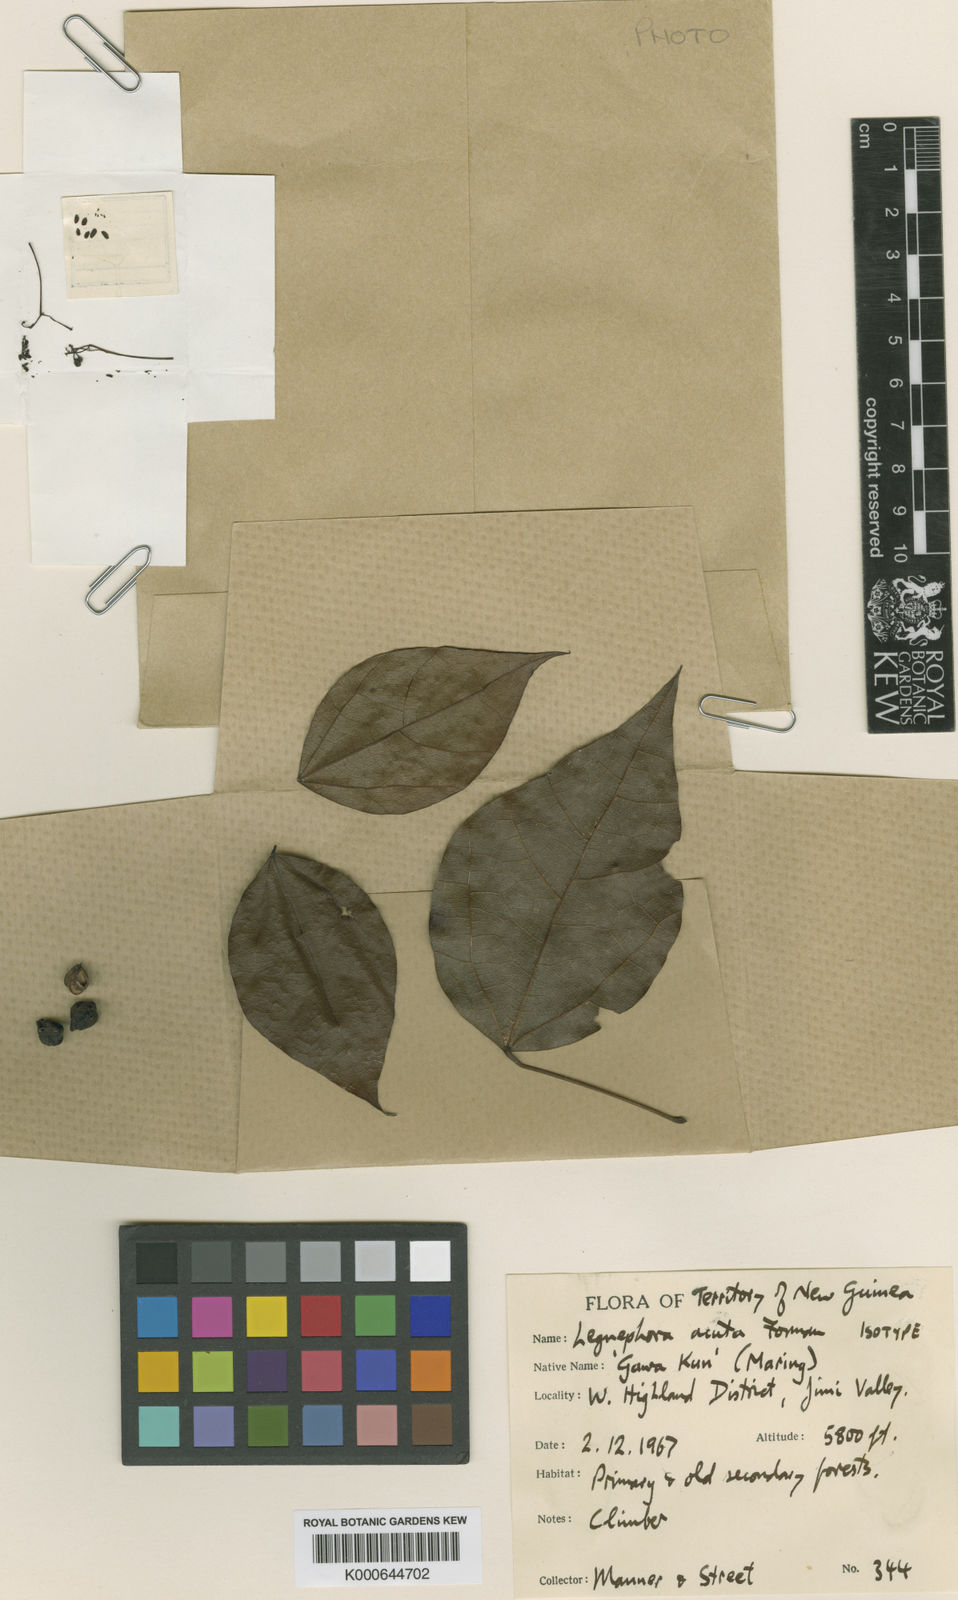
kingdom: Plantae
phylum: Tracheophyta
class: Magnoliopsida
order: Ranunculales
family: Menispermaceae
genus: Legnephora
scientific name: Legnephora acuta
